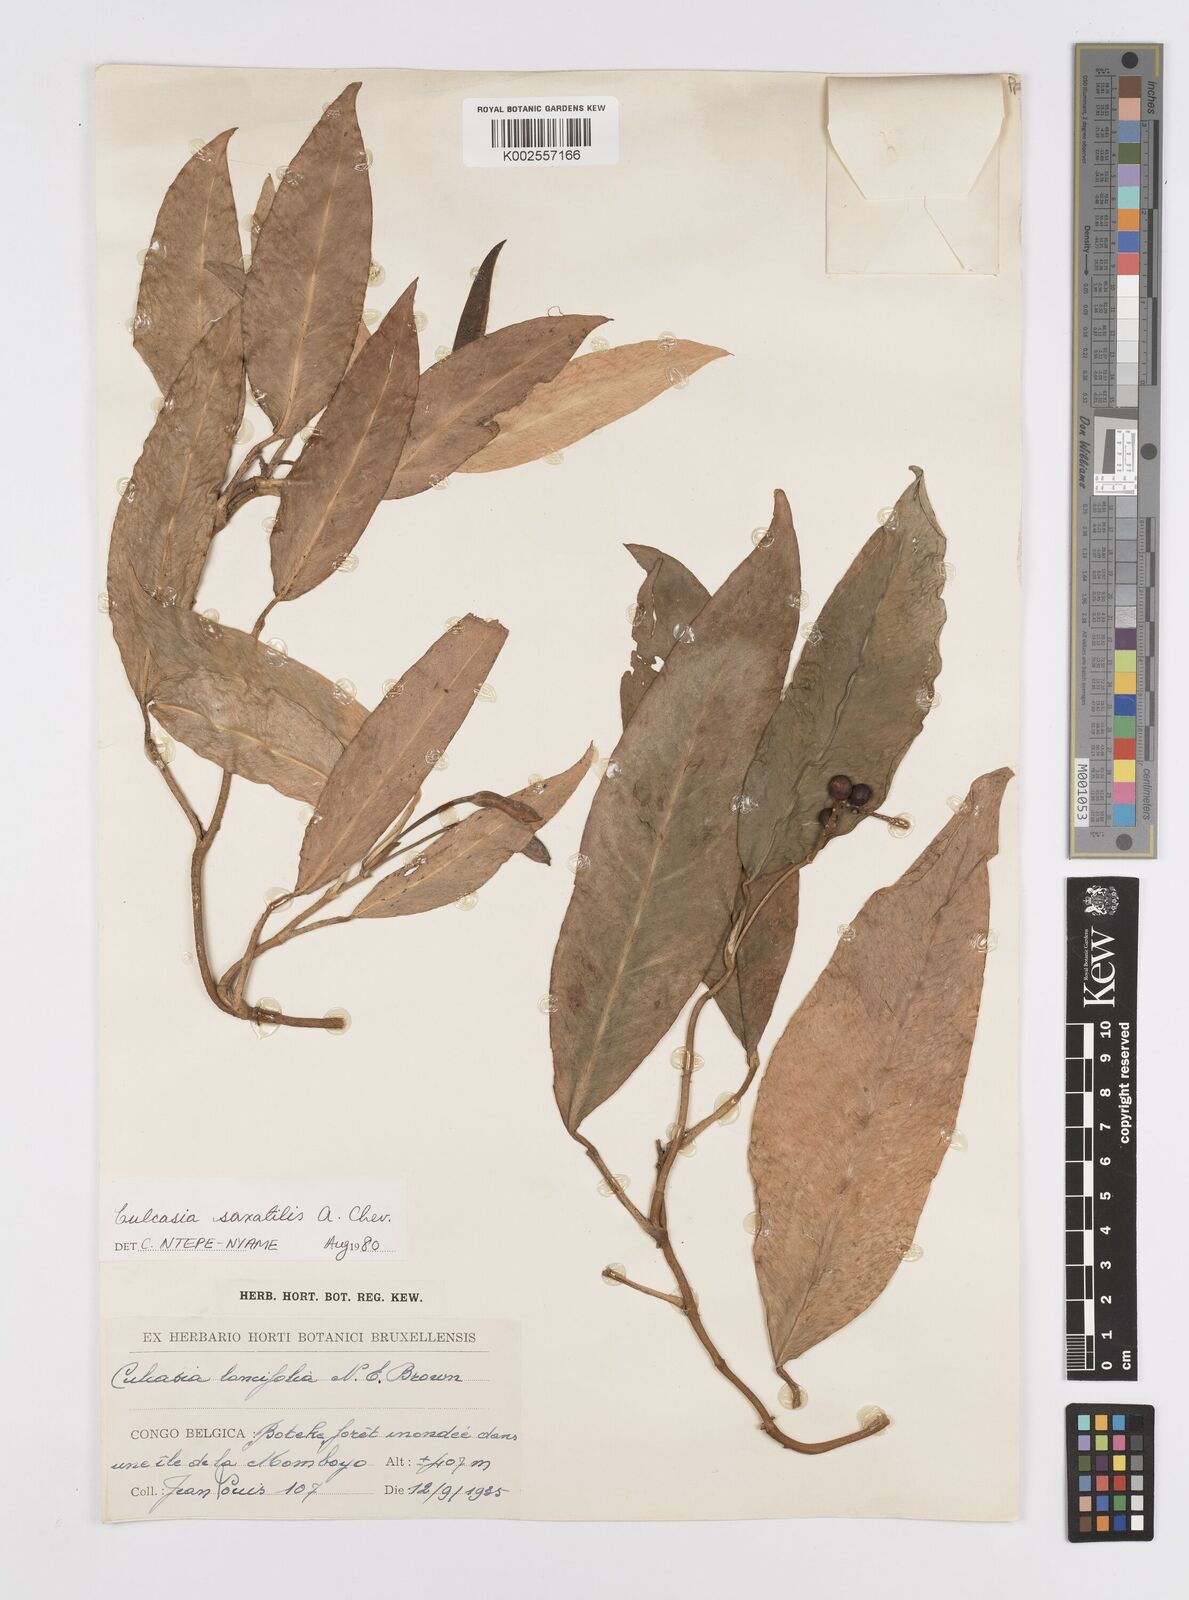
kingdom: Plantae
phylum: Tracheophyta
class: Liliopsida
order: Alismatales
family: Araceae
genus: Culcasia
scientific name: Culcasia scandens
